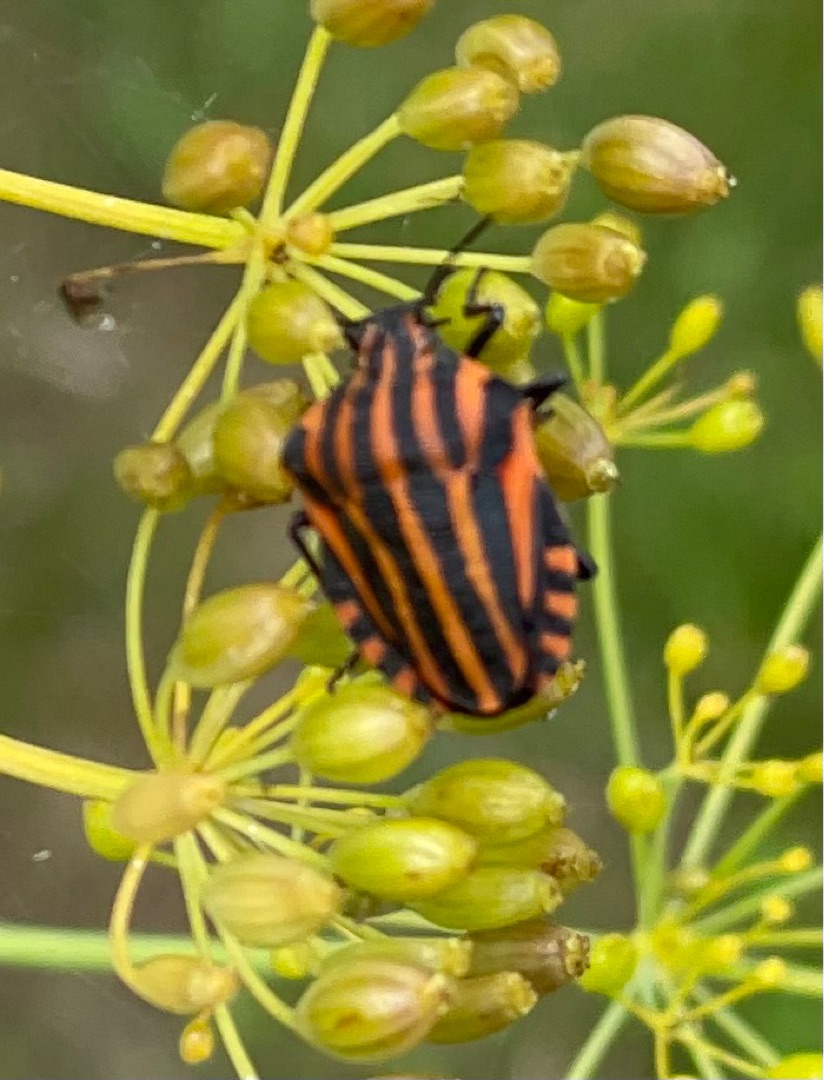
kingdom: Animalia
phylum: Arthropoda
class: Insecta
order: Hemiptera
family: Pentatomidae
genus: Graphosoma
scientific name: Graphosoma italicum
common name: Stribetæge
